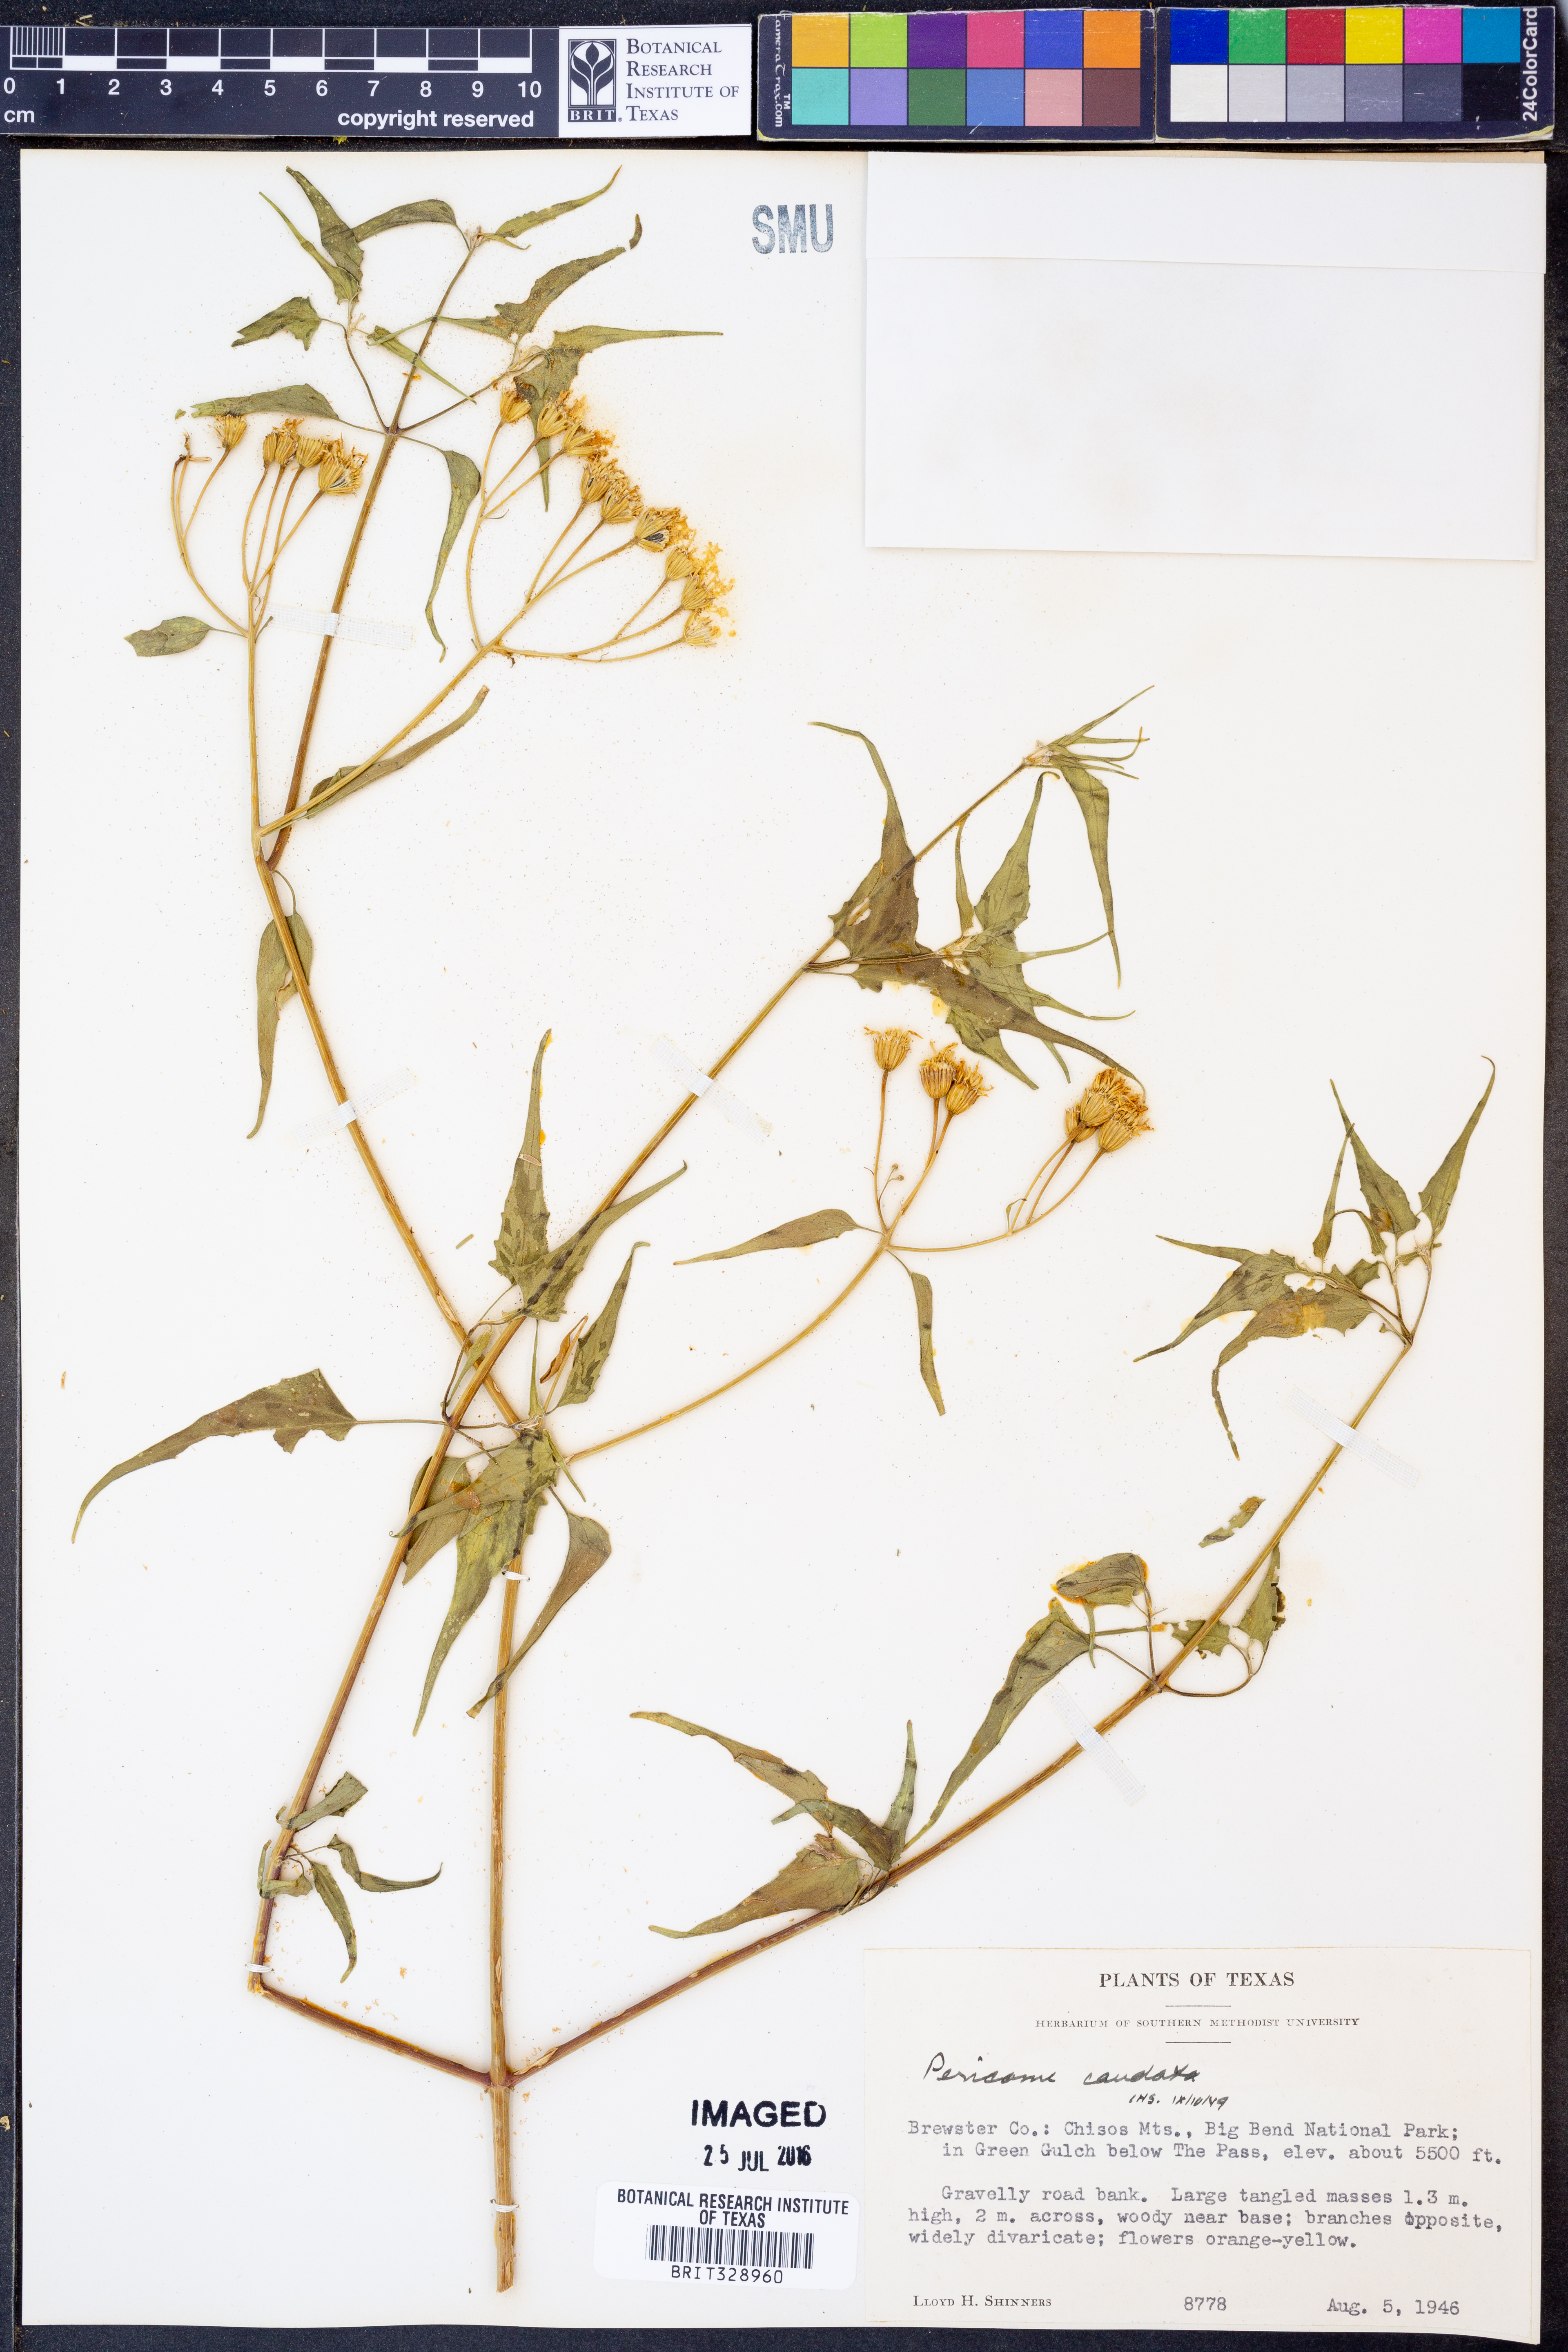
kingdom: Plantae
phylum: Tracheophyta
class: Magnoliopsida
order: Asterales
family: Asteraceae
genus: Pericome
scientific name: Pericome caudata
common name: Taperleaf
